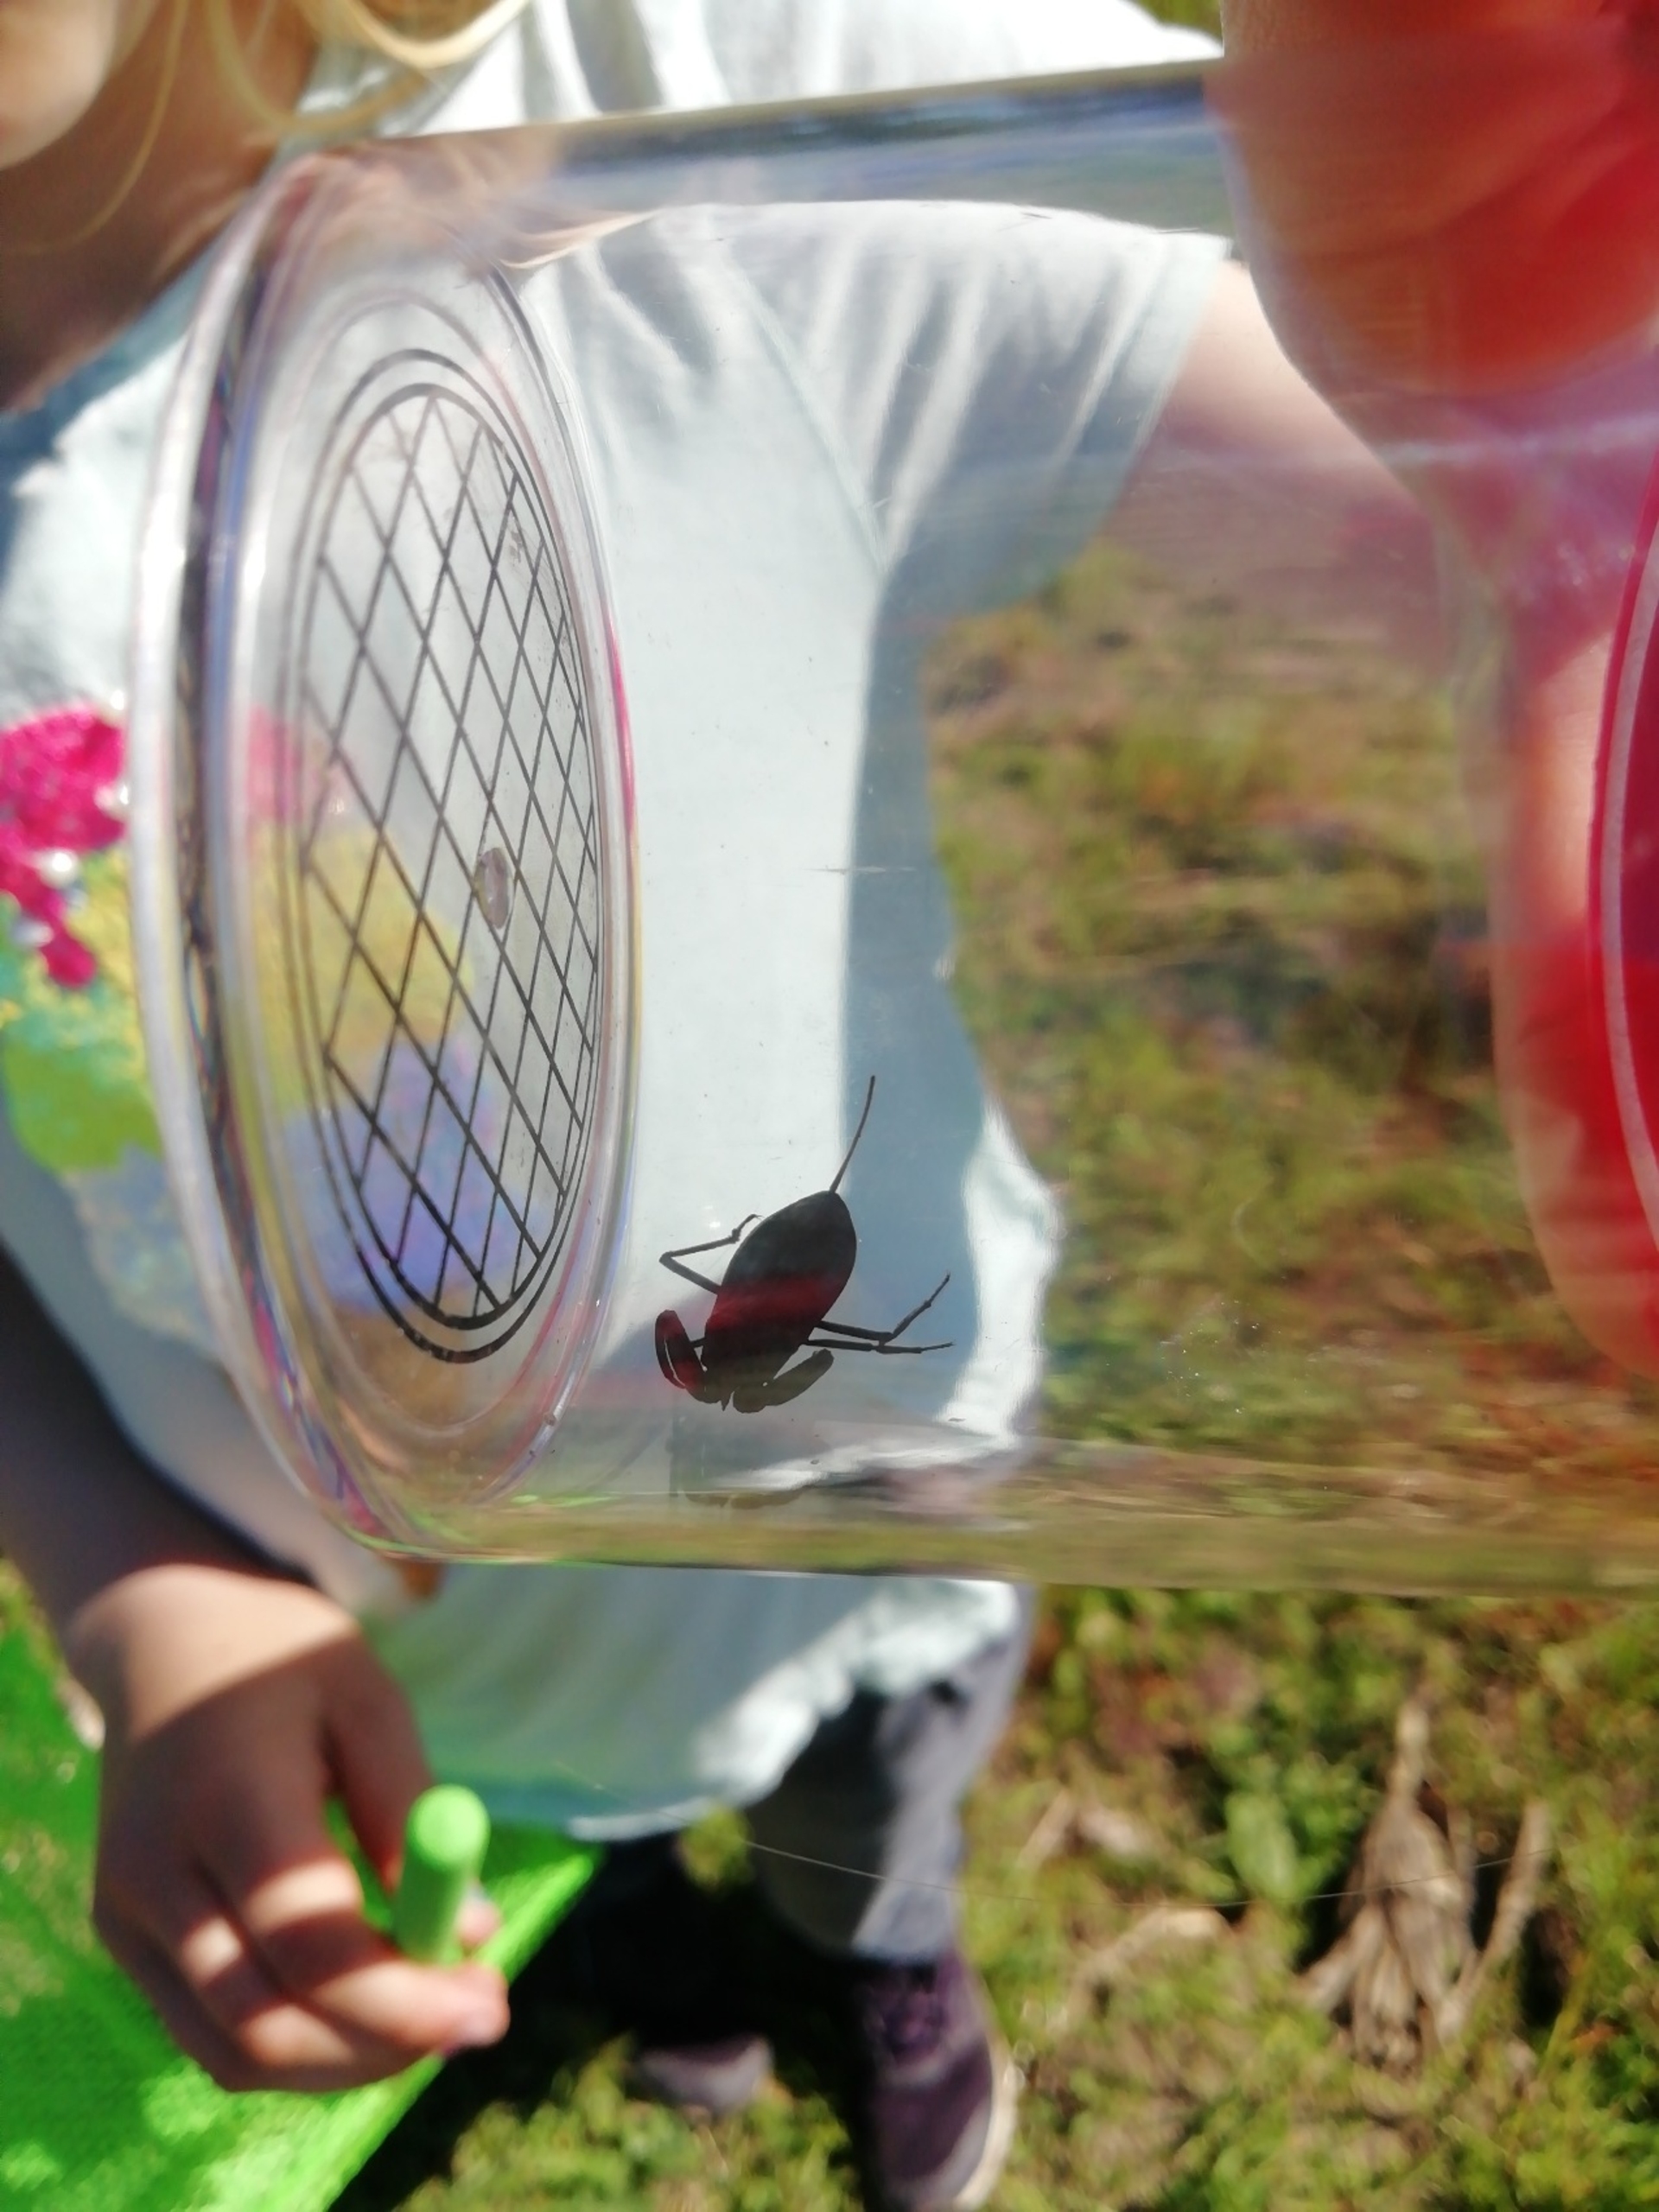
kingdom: Animalia
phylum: Arthropoda
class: Insecta
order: Hemiptera
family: Nepidae
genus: Nepa
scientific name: Nepa cinerea
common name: Skorpiontæge
